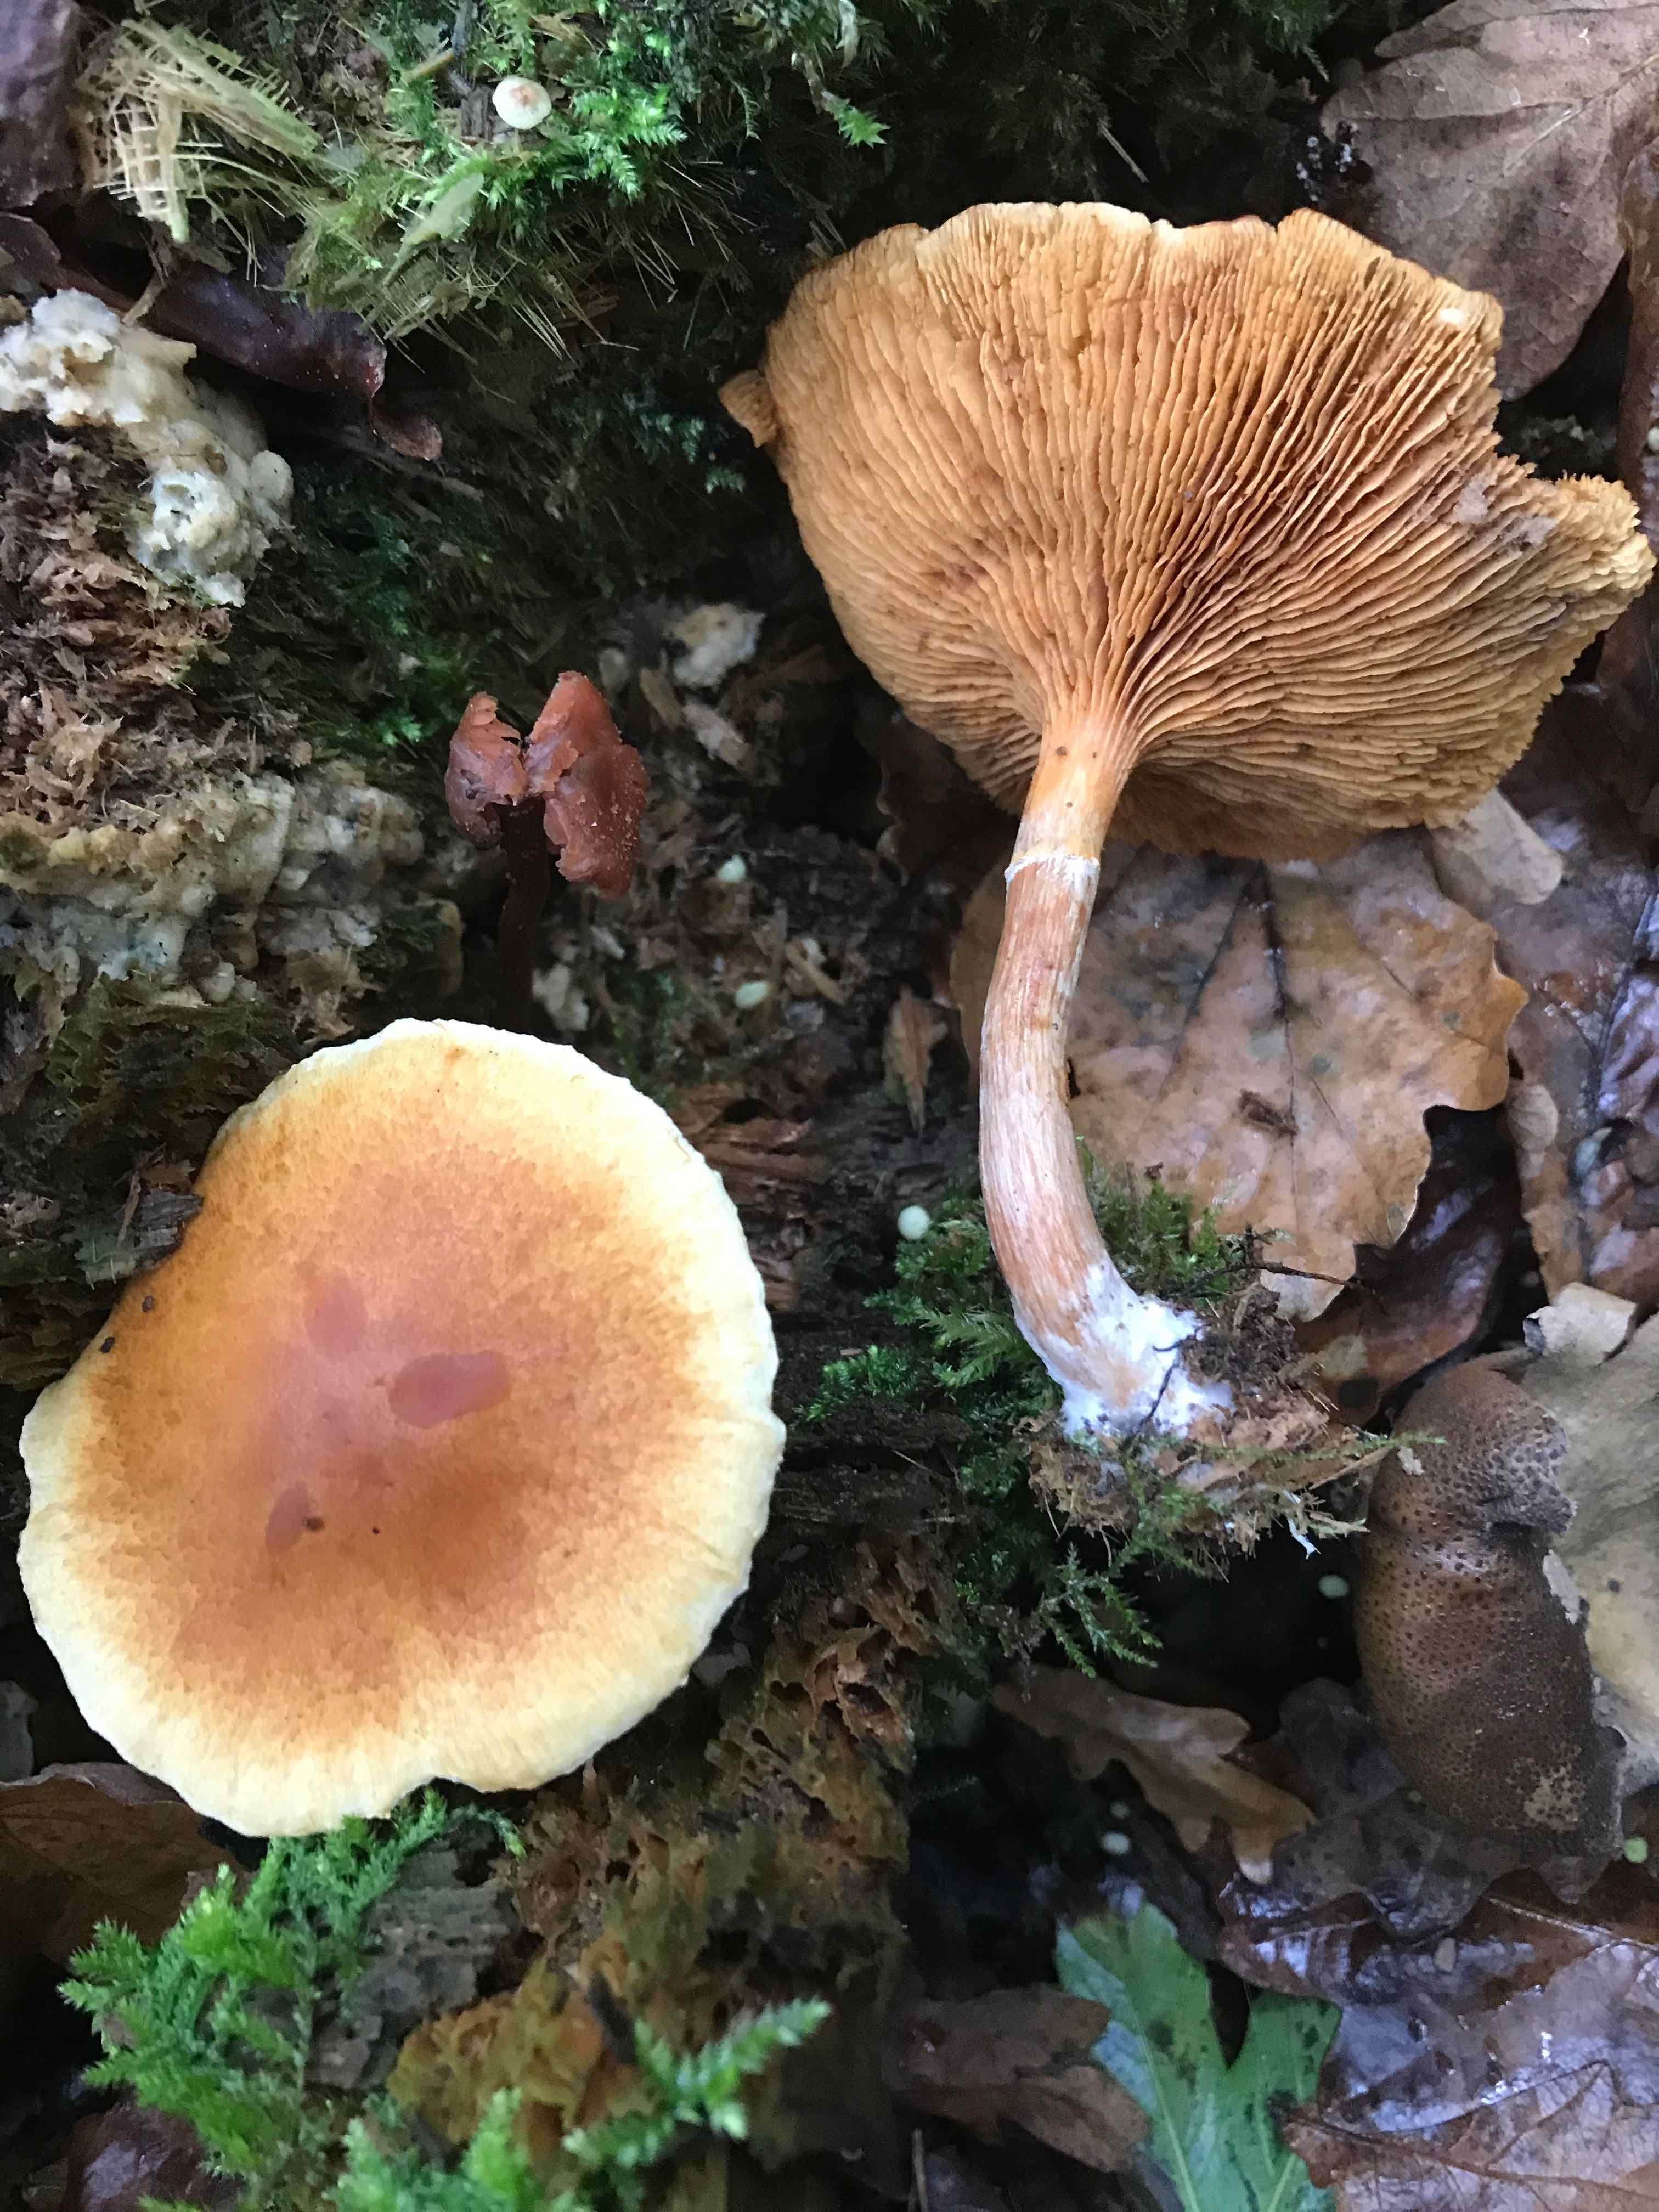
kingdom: Fungi
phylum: Basidiomycota
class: Agaricomycetes
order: Agaricales
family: Hymenogastraceae
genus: Gymnopilus
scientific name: Gymnopilus penetrans
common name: plettet flammehat
